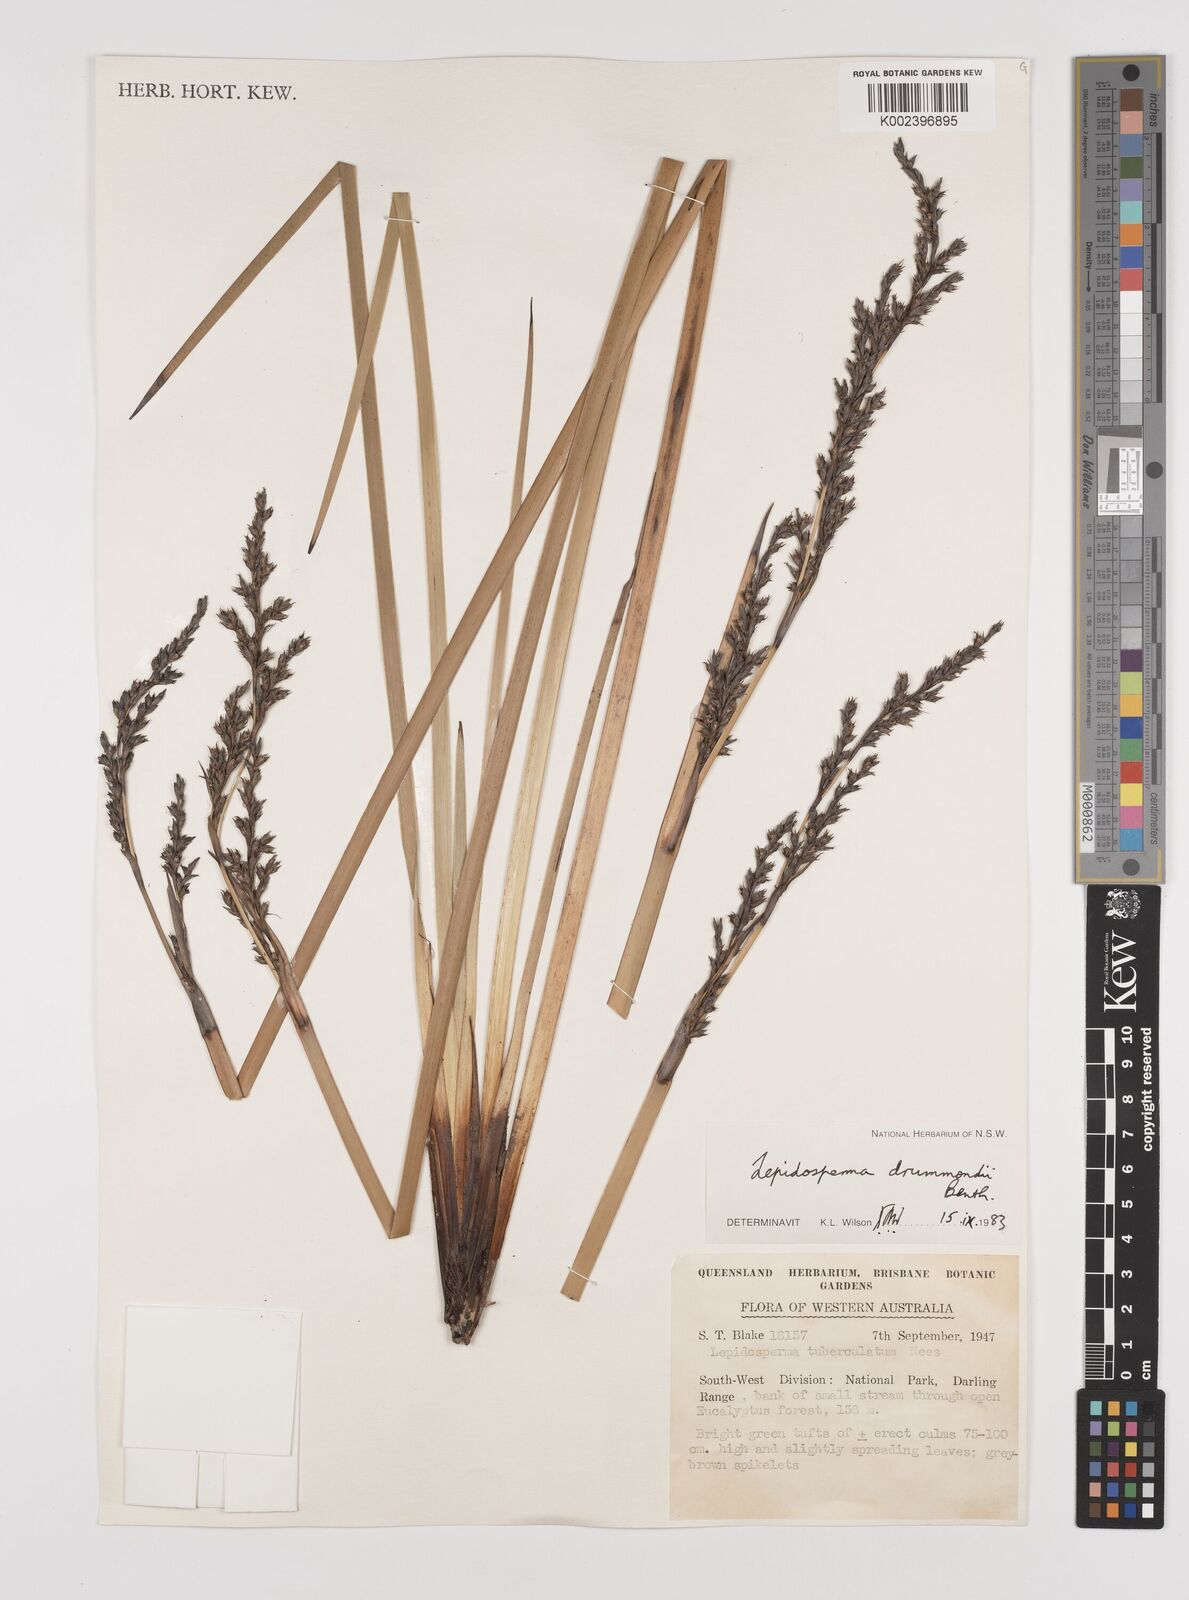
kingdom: Plantae
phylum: Tracheophyta
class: Liliopsida
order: Poales
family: Cyperaceae
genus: Lepidosperma
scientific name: Lepidosperma drummondii
